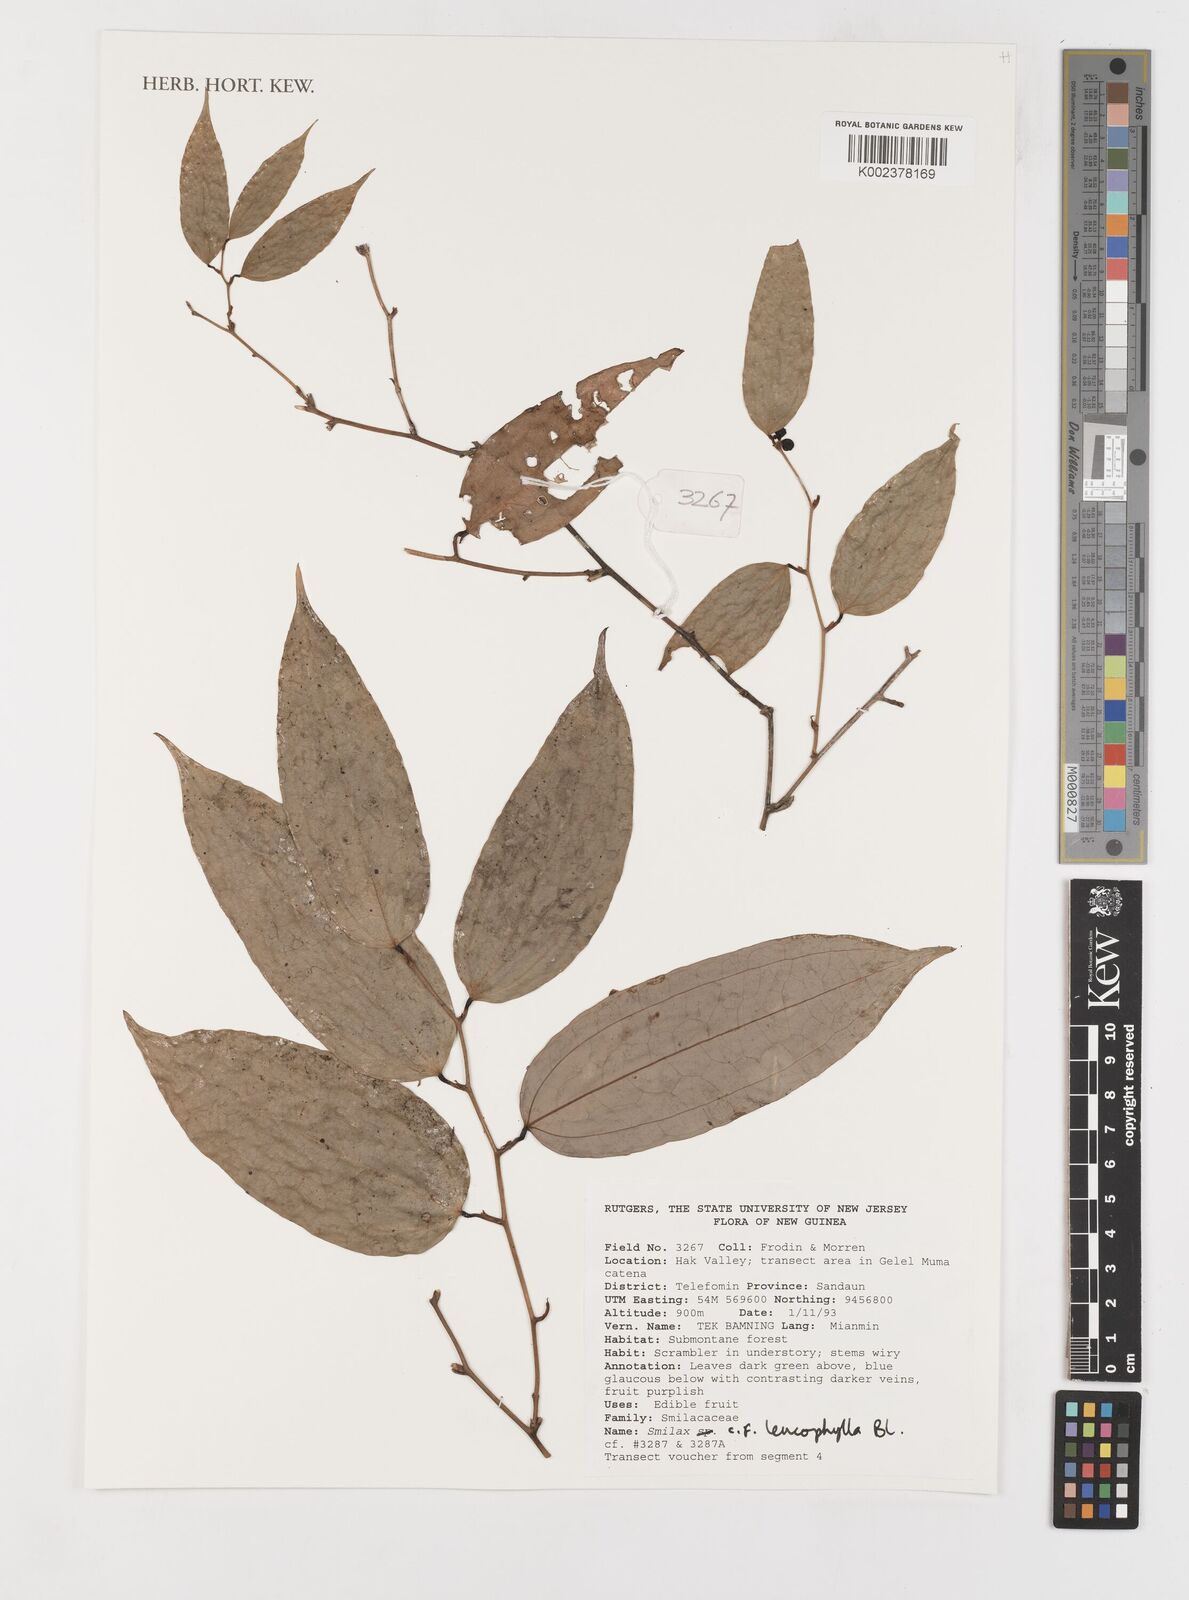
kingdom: Plantae
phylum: Tracheophyta
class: Liliopsida
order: Liliales
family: Smilacaceae
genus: Smilax
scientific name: Smilax leucophylla
